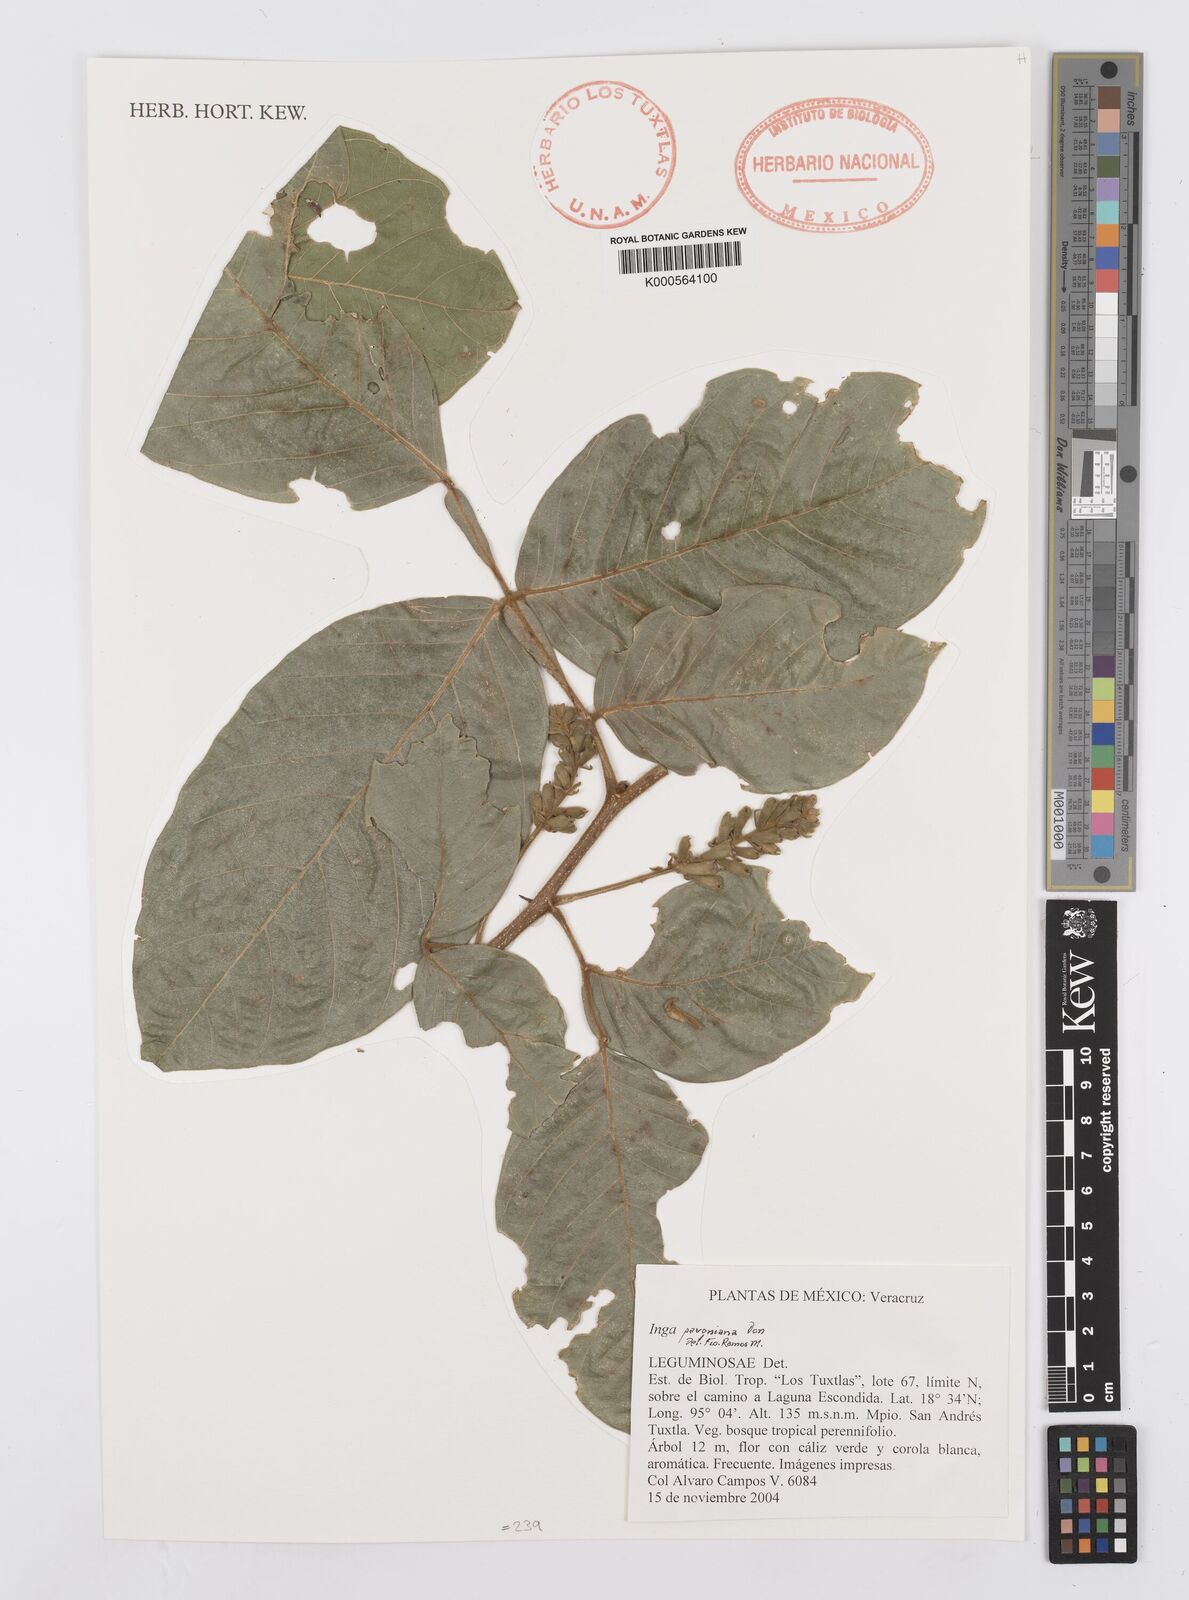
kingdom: Plantae
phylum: Tracheophyta
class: Magnoliopsida
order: Fabales
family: Fabaceae
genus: Inga
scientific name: Inga sapindoides
